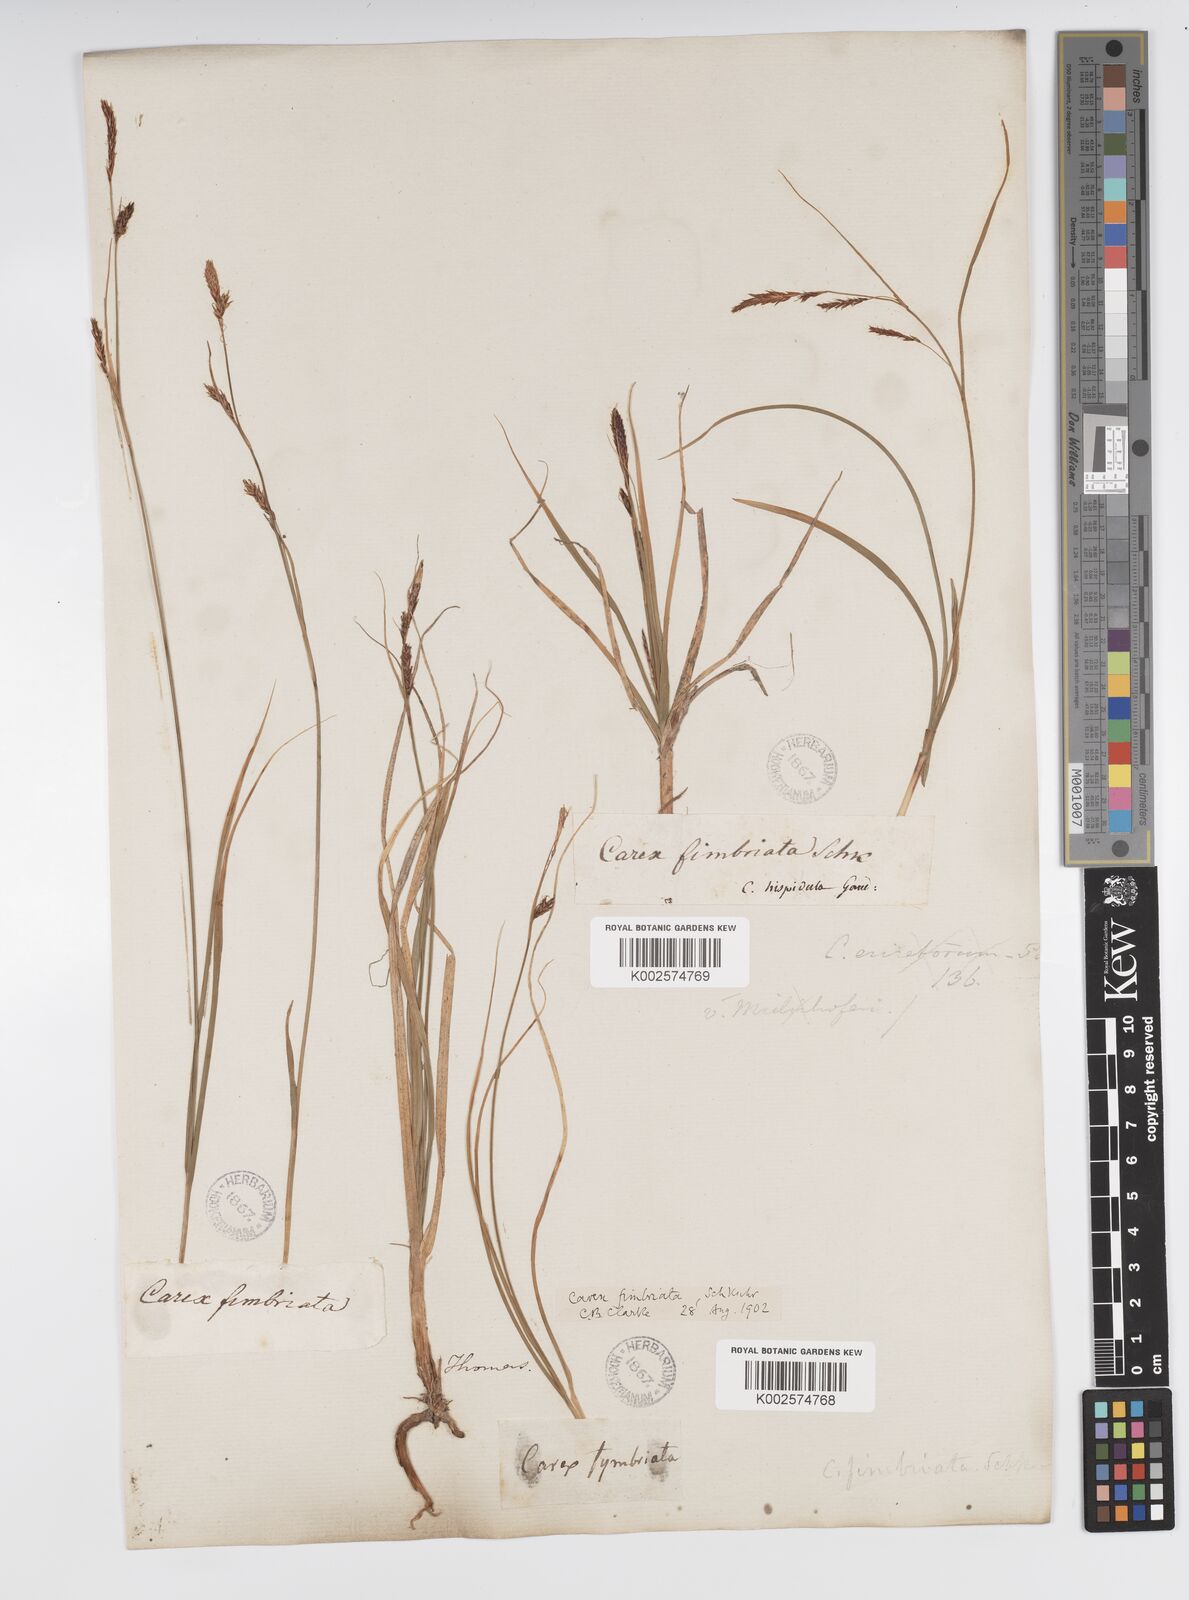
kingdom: Plantae
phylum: Tracheophyta
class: Liliopsida
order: Poales
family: Cyperaceae
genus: Carex
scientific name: Carex fimbriata
